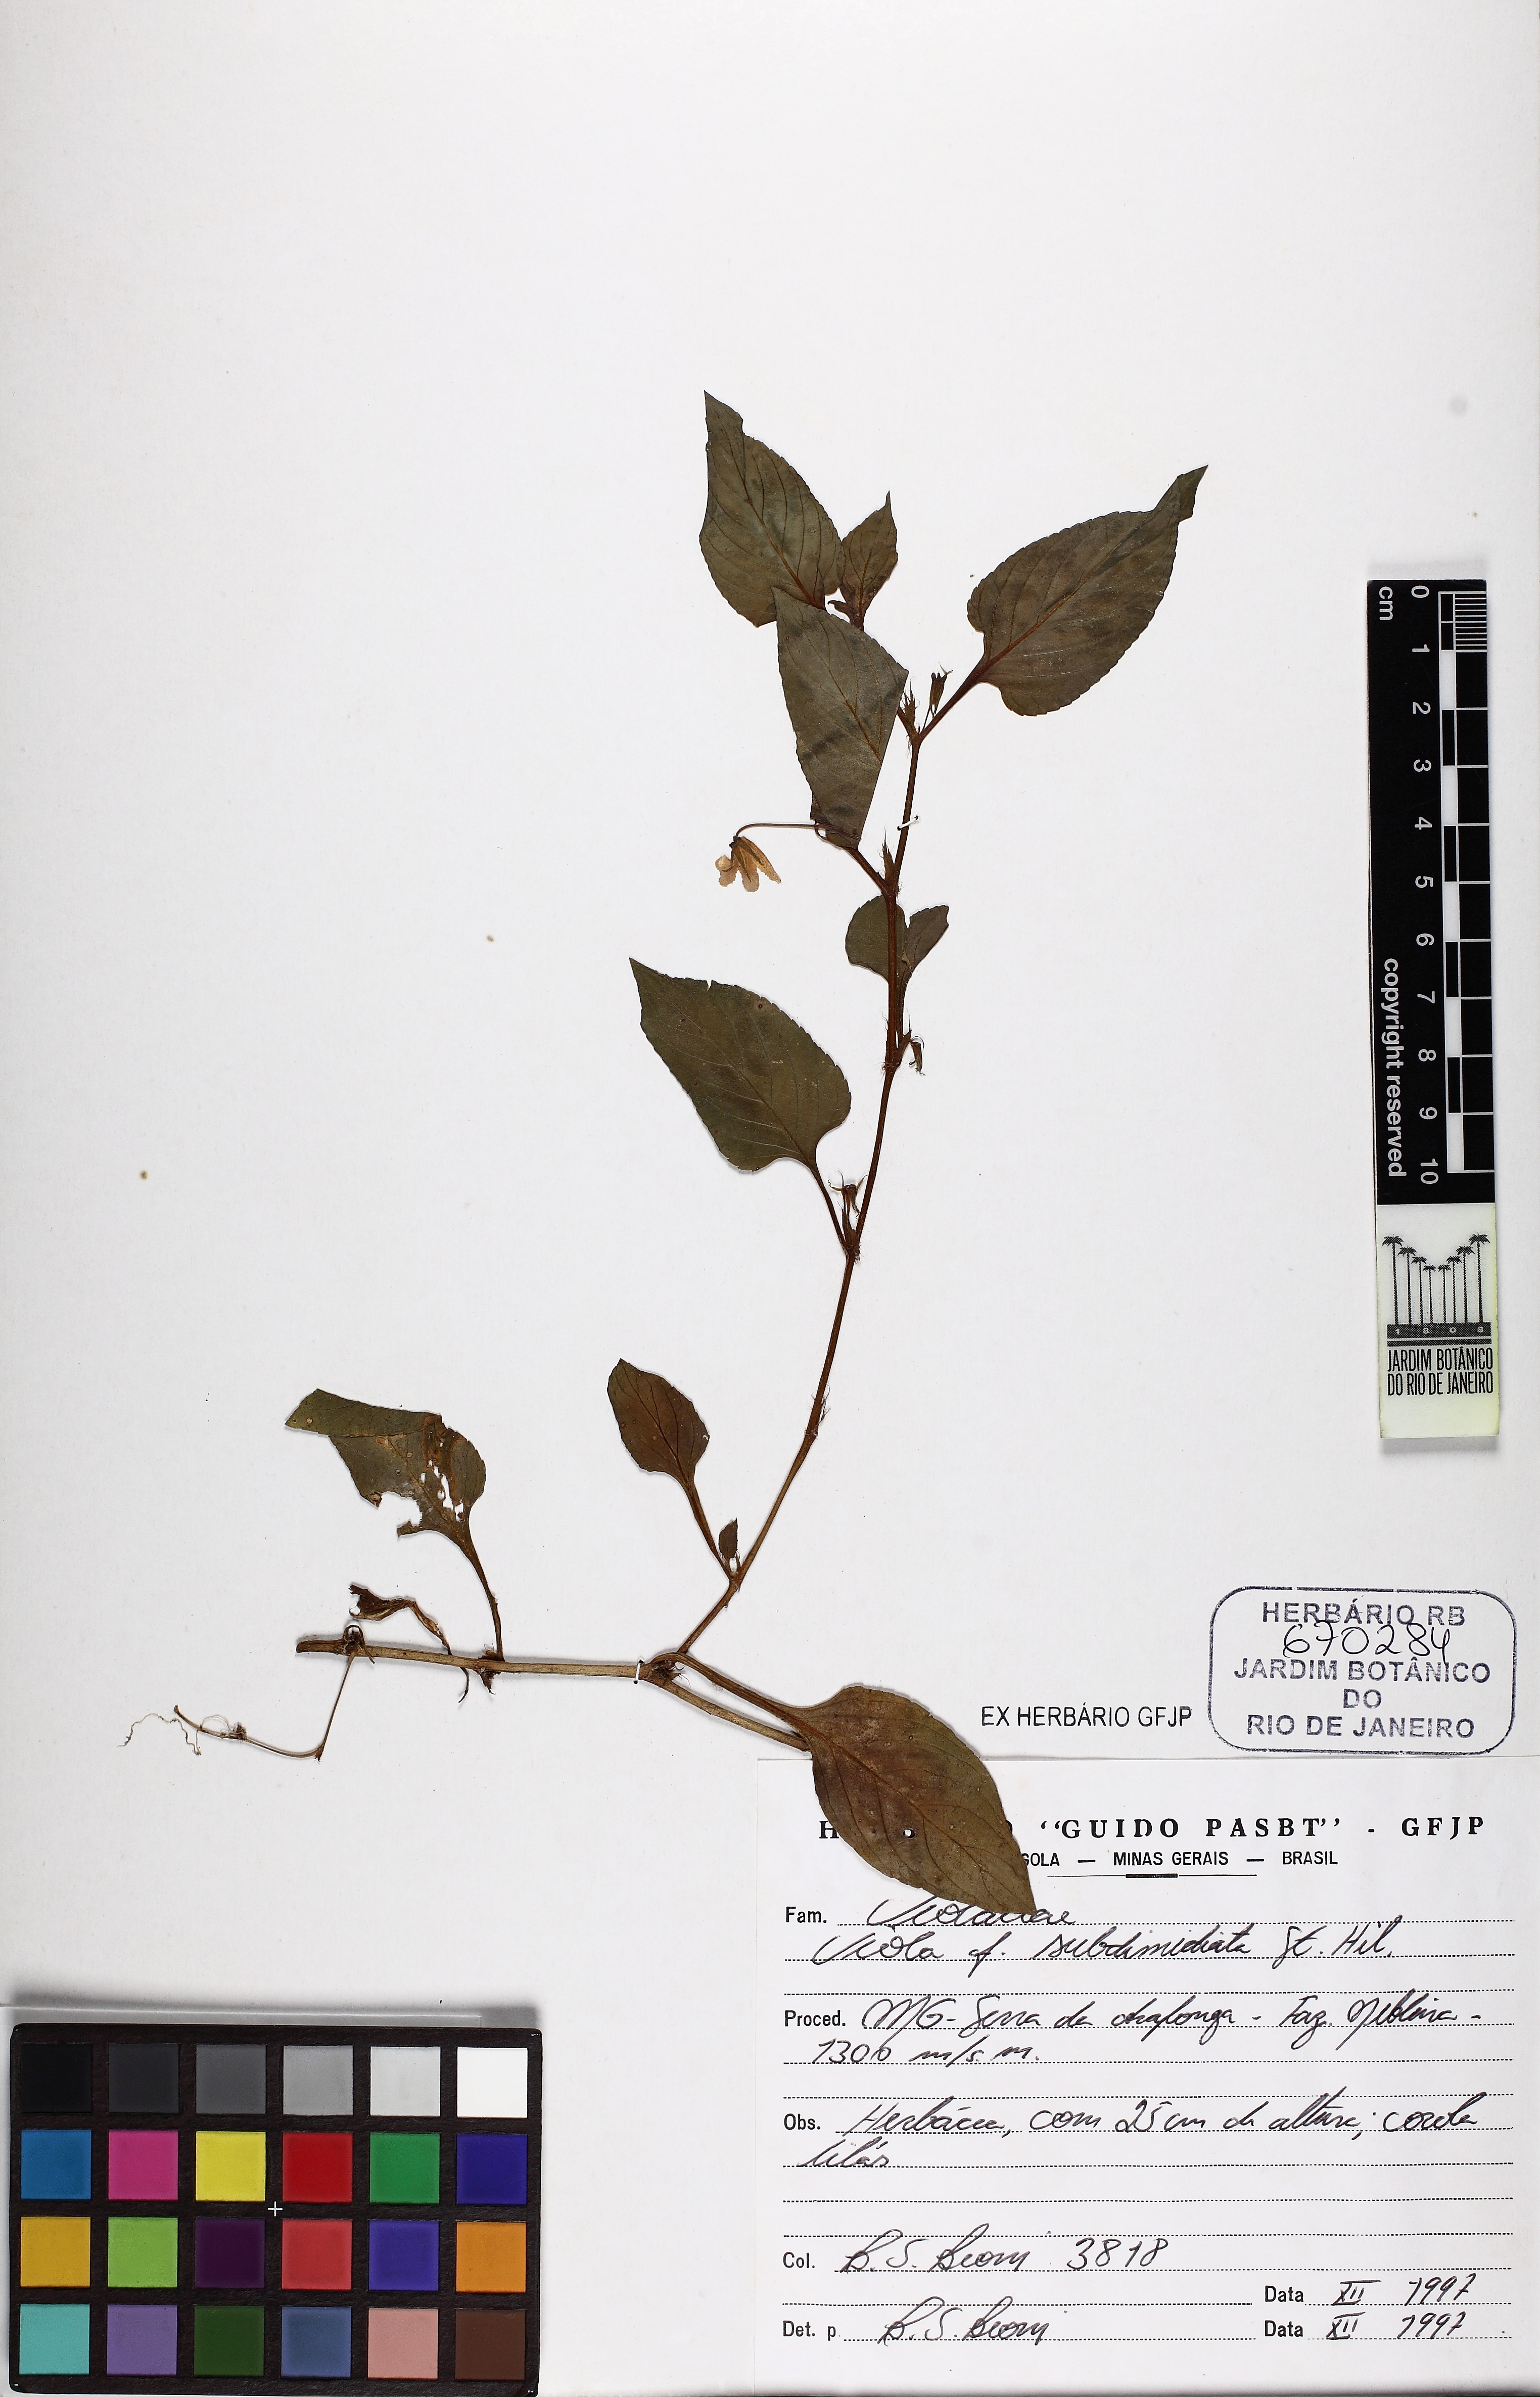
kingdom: Plantae
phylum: Tracheophyta
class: Magnoliopsida
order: Malpighiales
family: Violaceae
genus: Viola
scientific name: Viola subdimidiata
